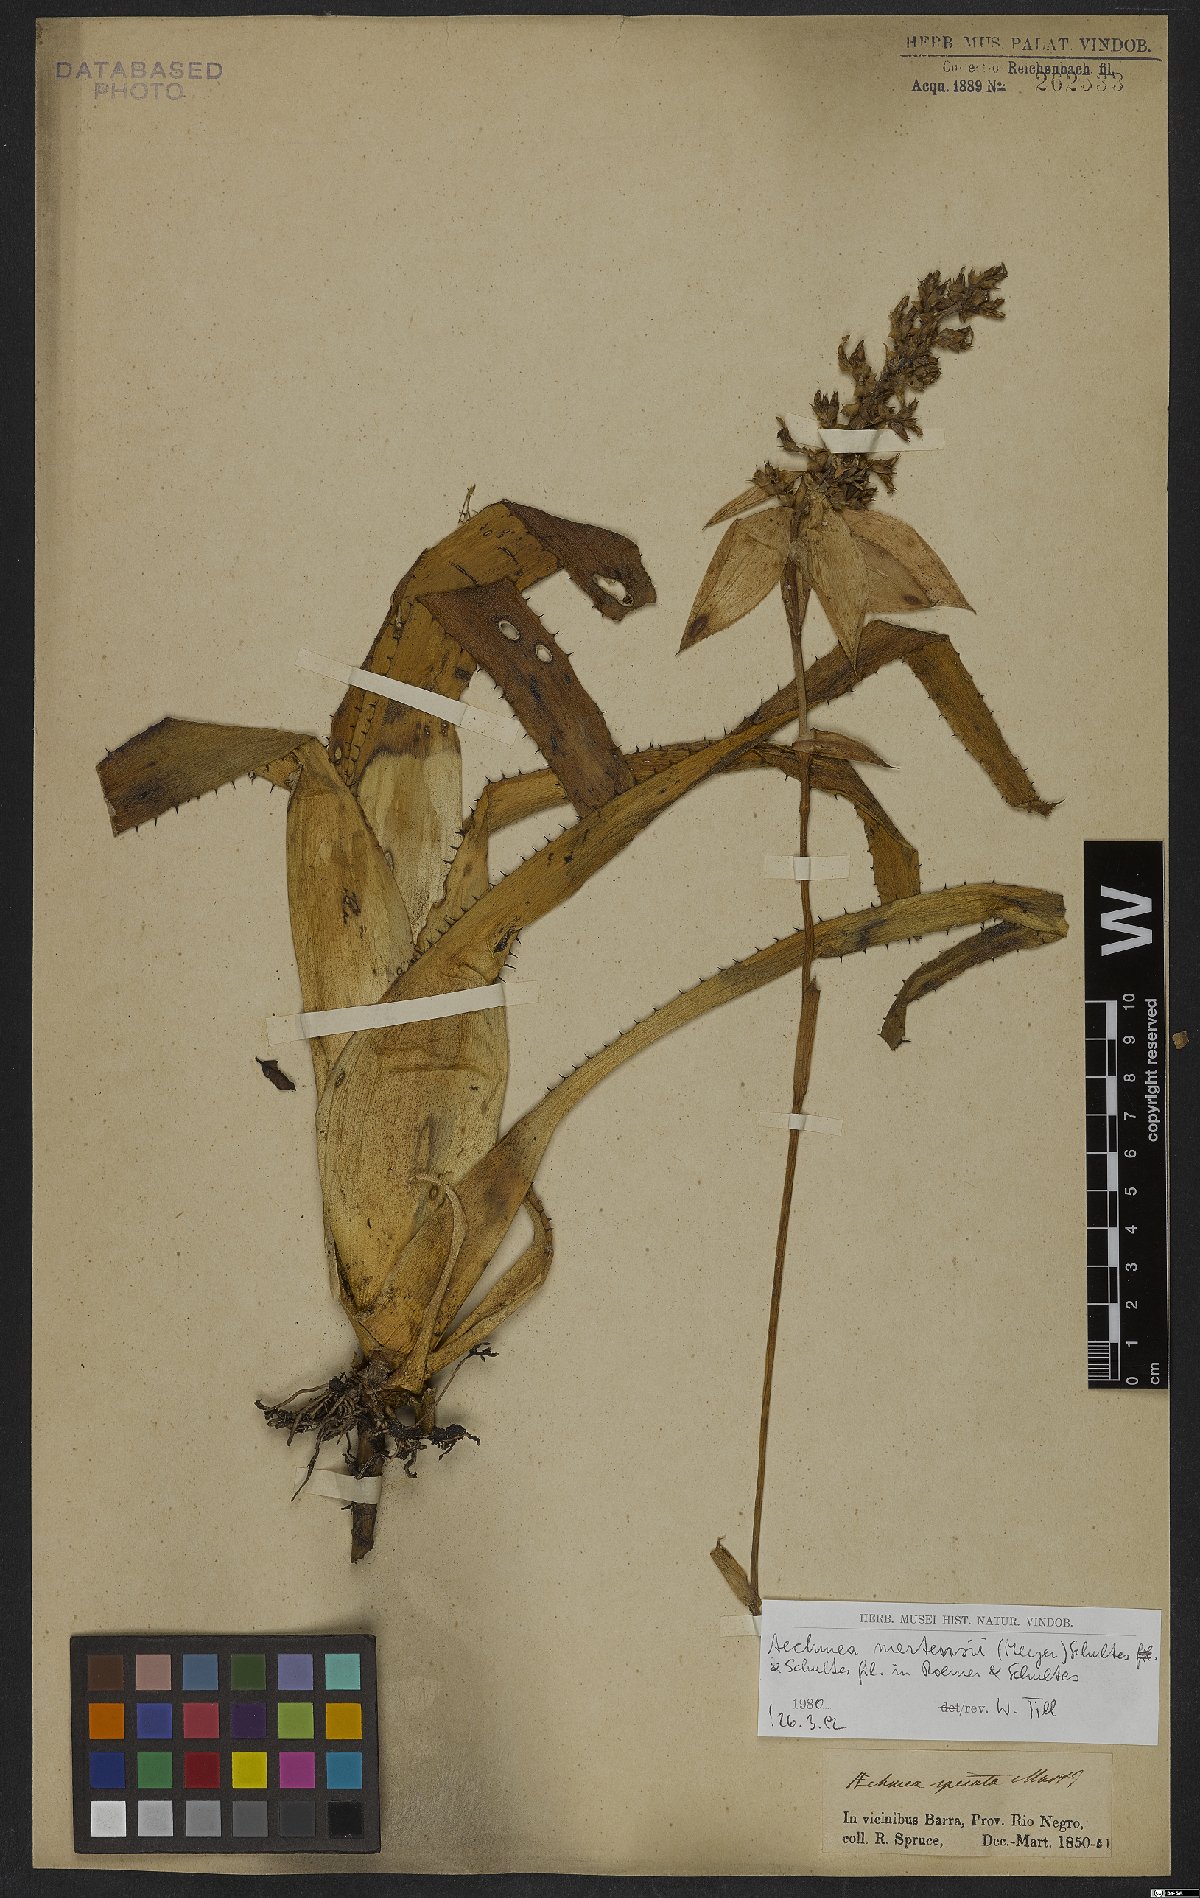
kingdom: Plantae
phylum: Tracheophyta
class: Liliopsida
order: Poales
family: Bromeliaceae
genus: Aechmea
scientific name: Aechmea mertensii
